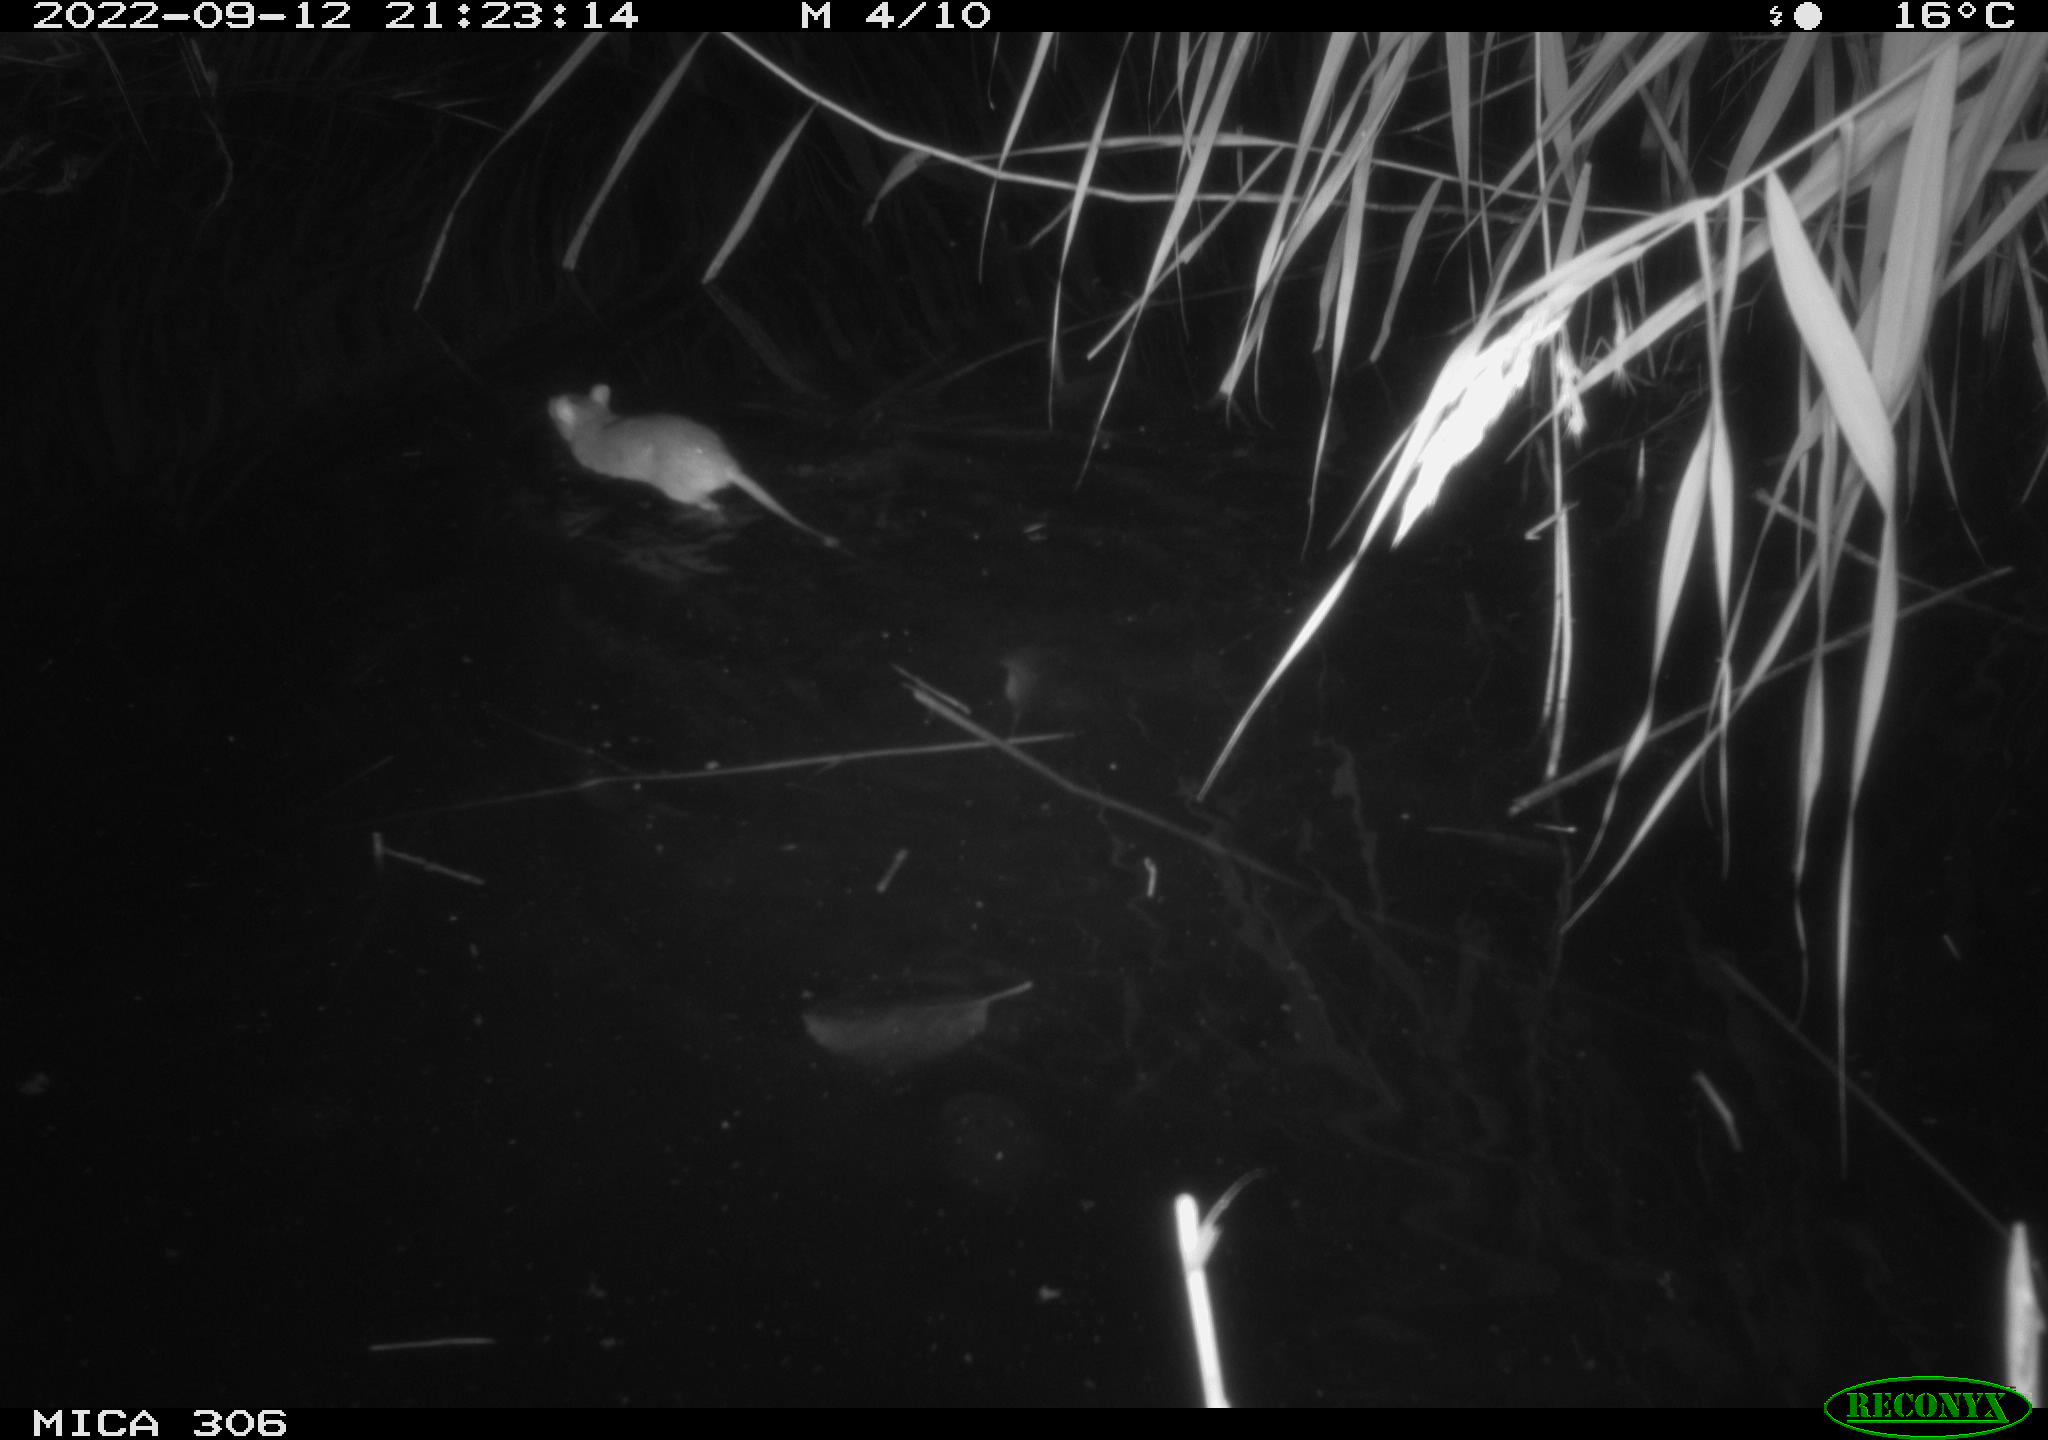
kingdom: Animalia
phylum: Chordata
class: Mammalia
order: Rodentia
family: Muridae
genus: Rattus
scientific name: Rattus norvegicus
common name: Brown rat
